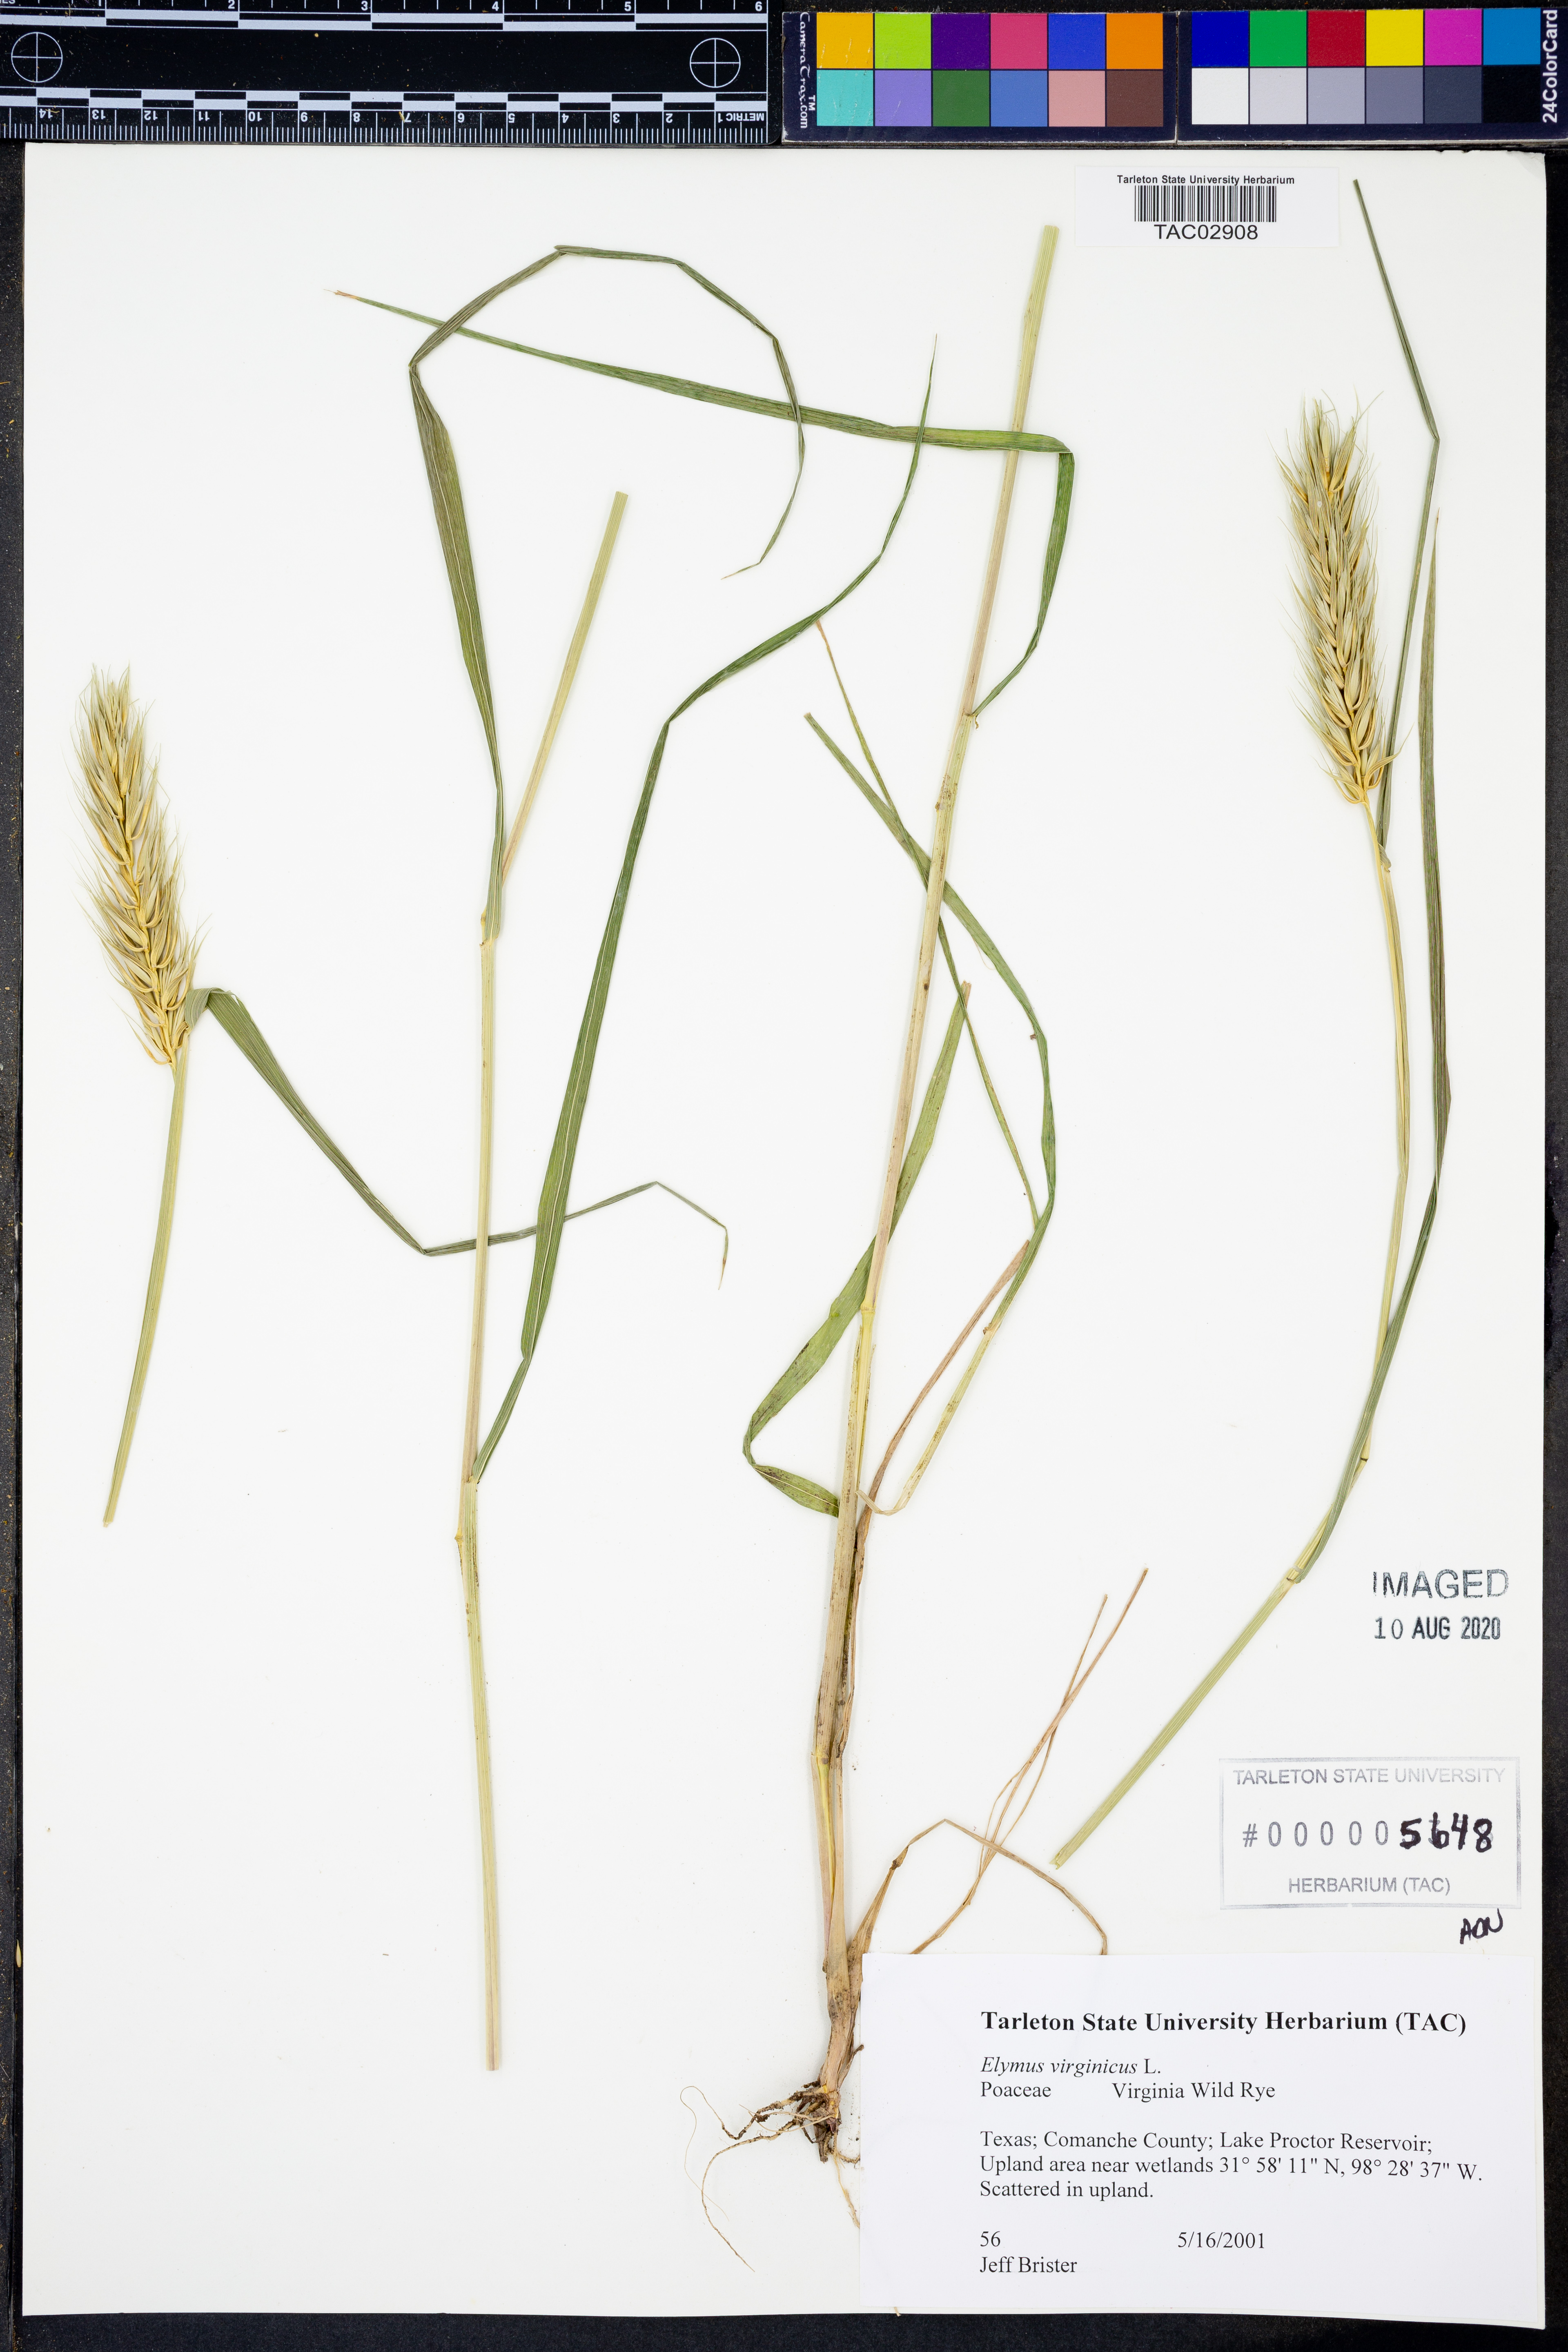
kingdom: Plantae
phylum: Tracheophyta
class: Liliopsida
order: Poales
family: Poaceae
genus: Elymus
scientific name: Elymus virginicus
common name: Common eastern wildrye
